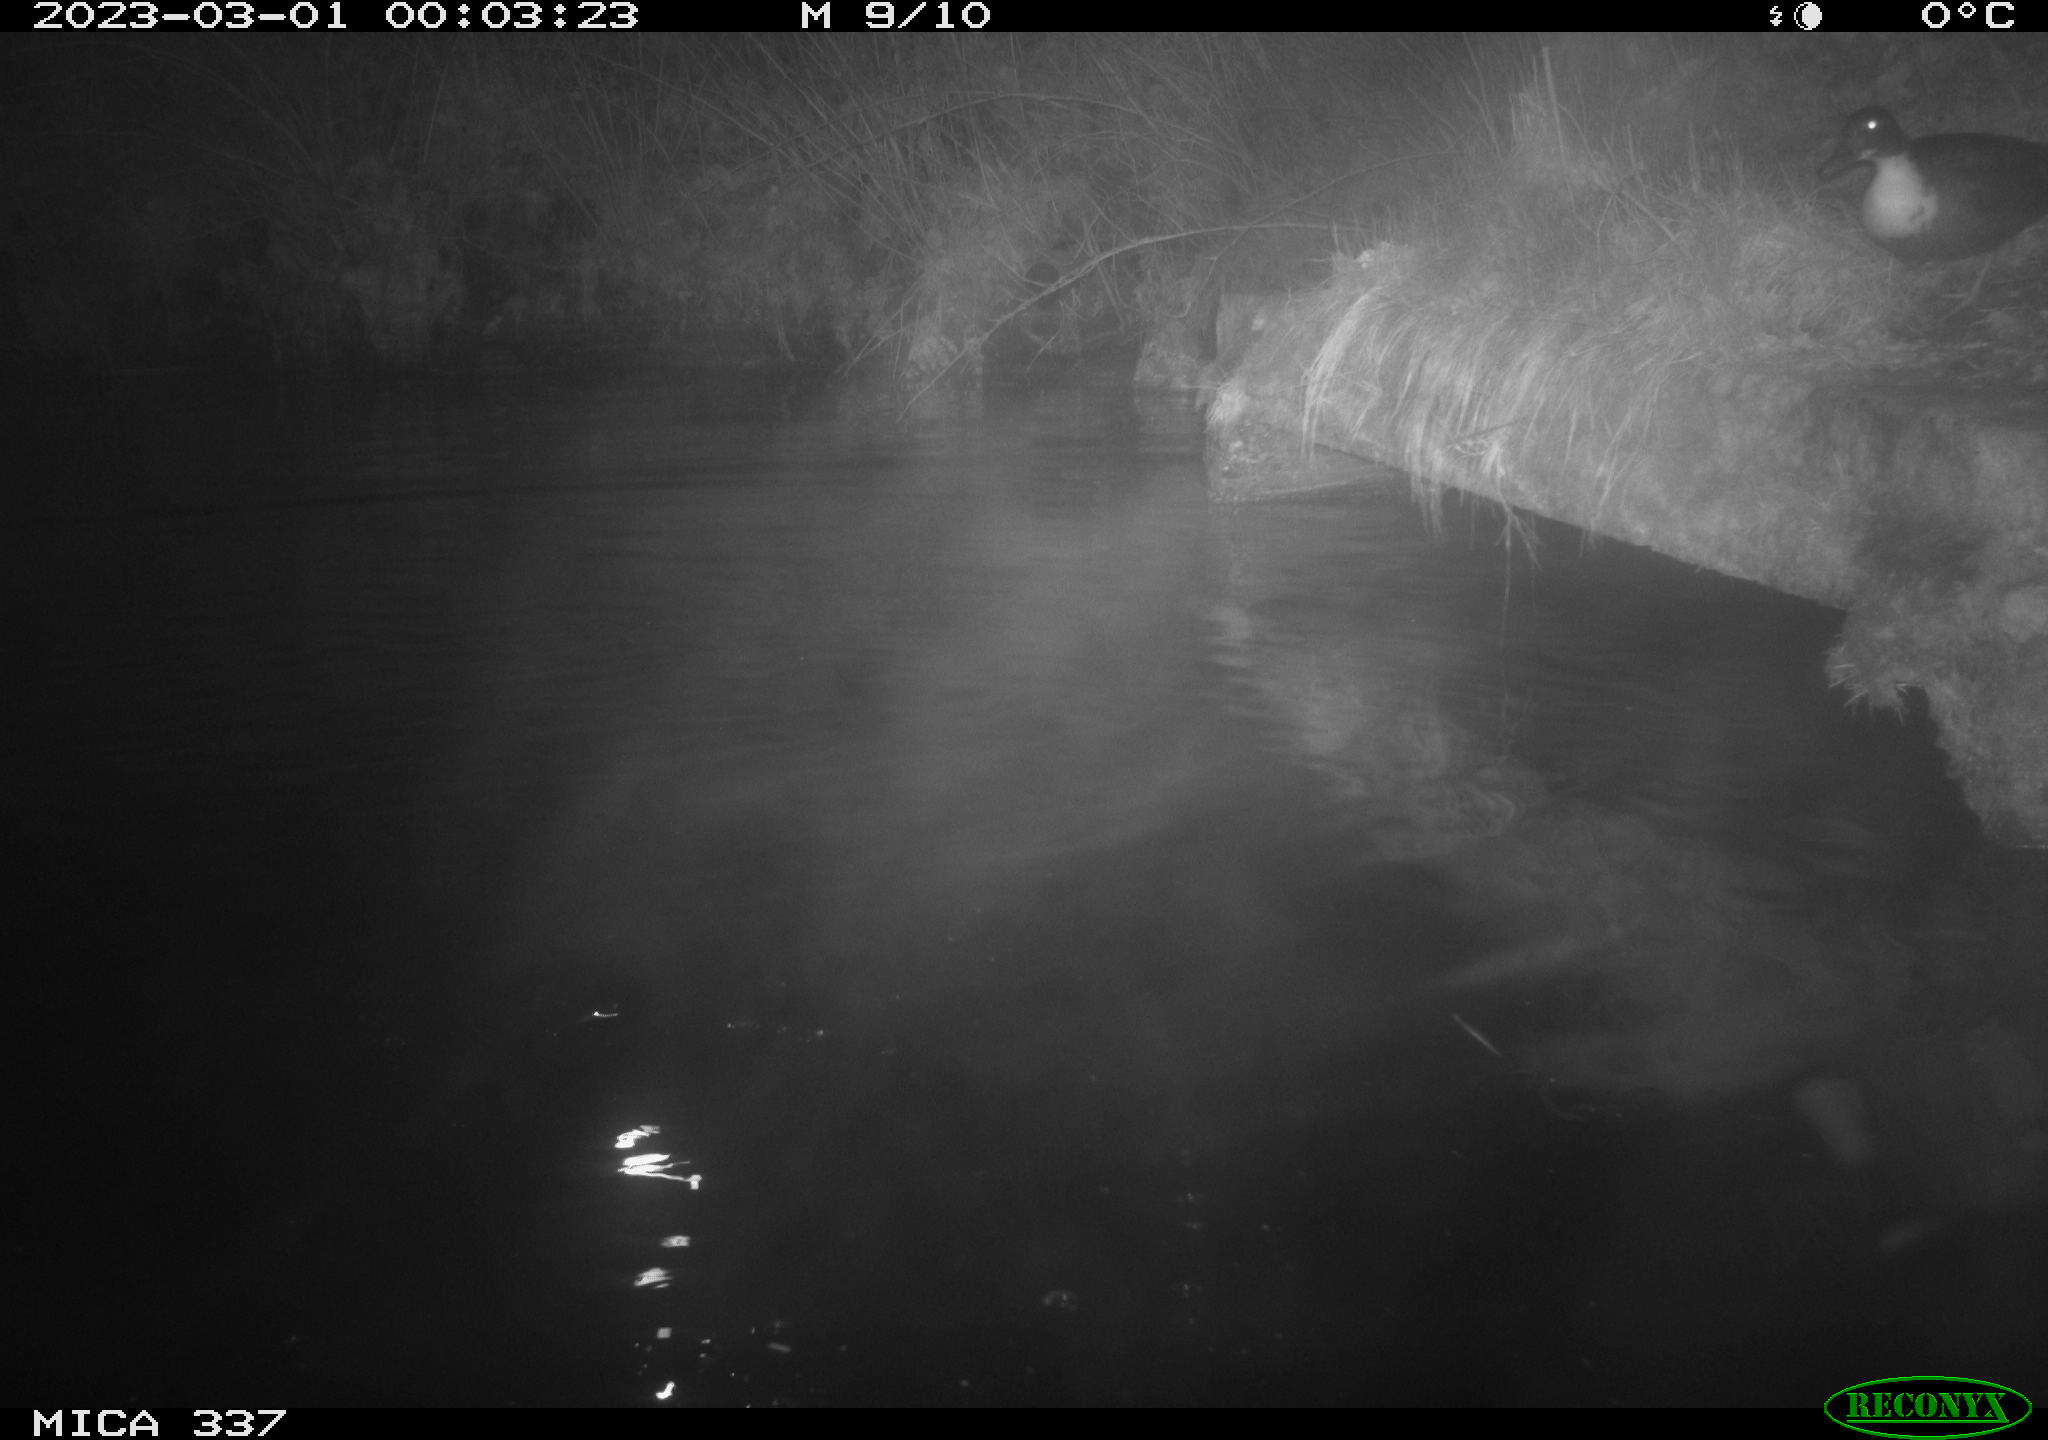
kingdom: Animalia
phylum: Chordata
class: Aves
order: Anseriformes
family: Anatidae
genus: Anas
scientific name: Anas
